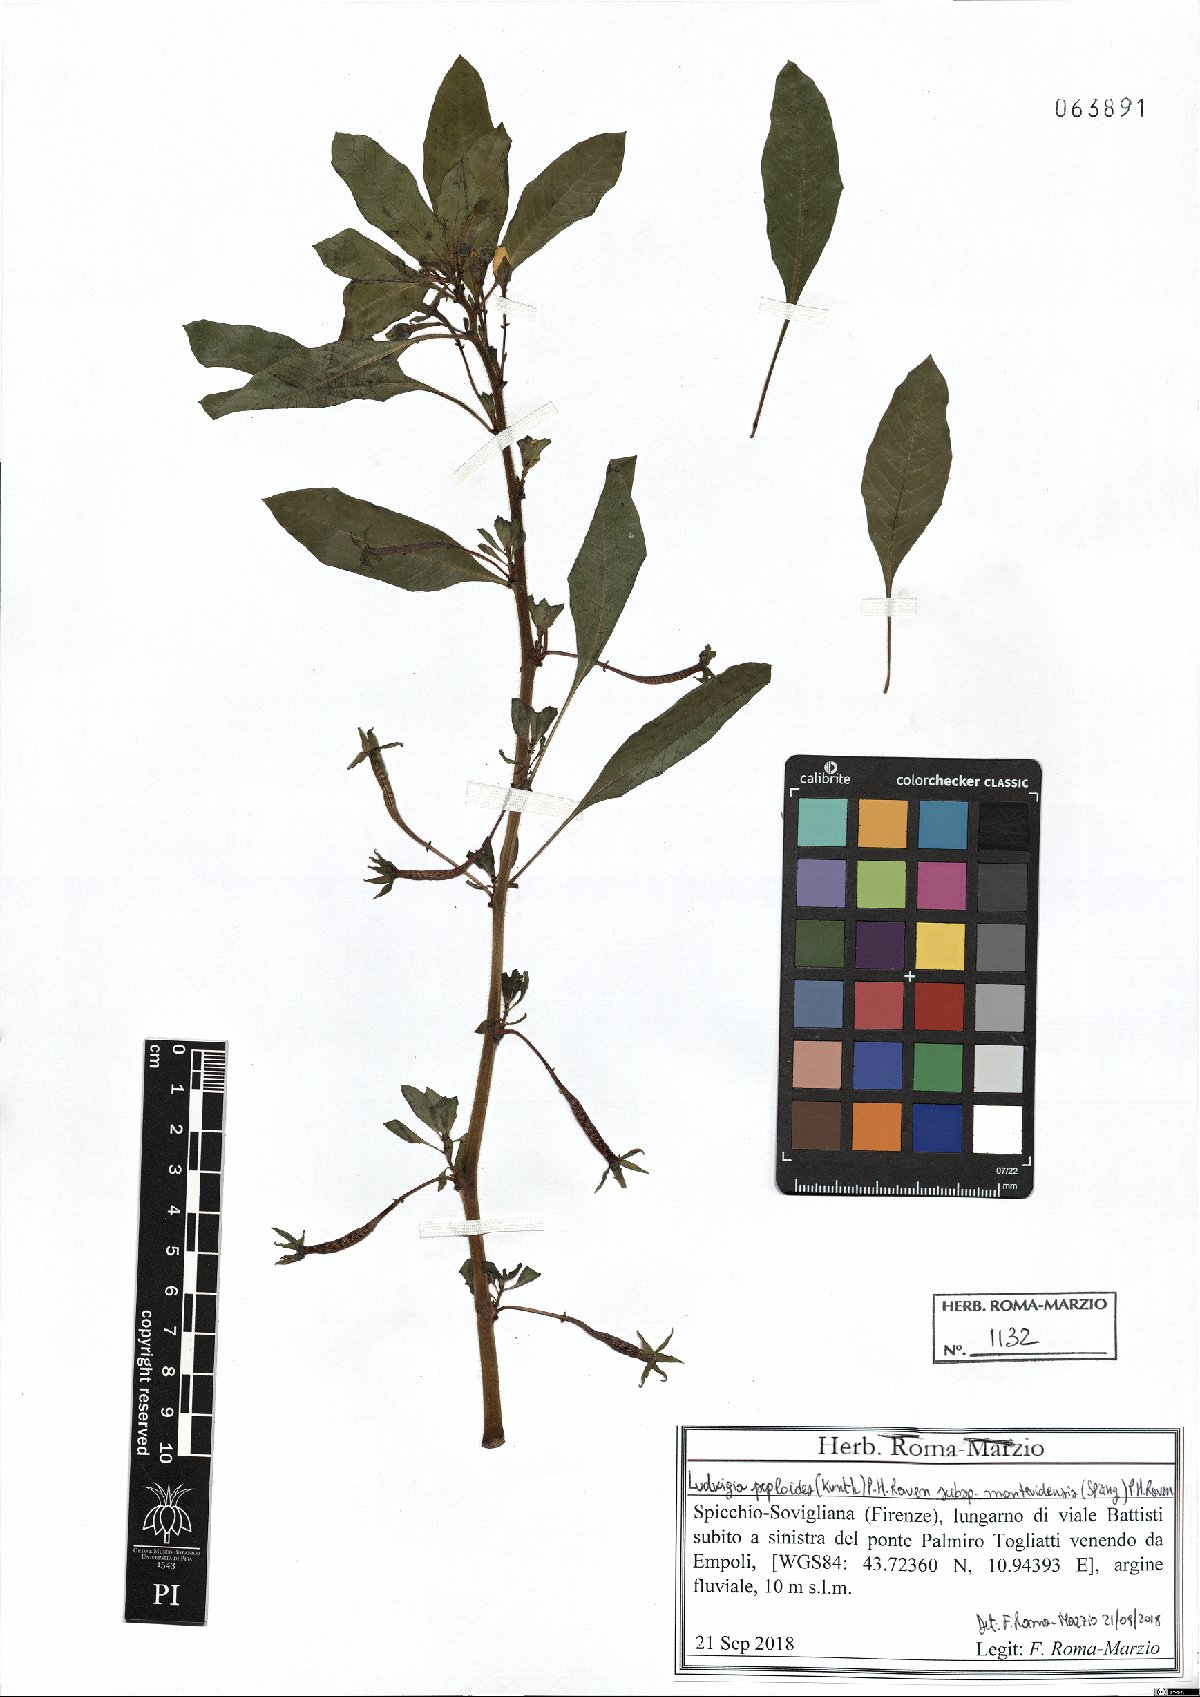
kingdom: Plantae
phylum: Tracheophyta
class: Magnoliopsida
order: Myrtales
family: Onagraceae
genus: Ludwigia
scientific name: Ludwigia peploides
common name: Floating primrose-willow
